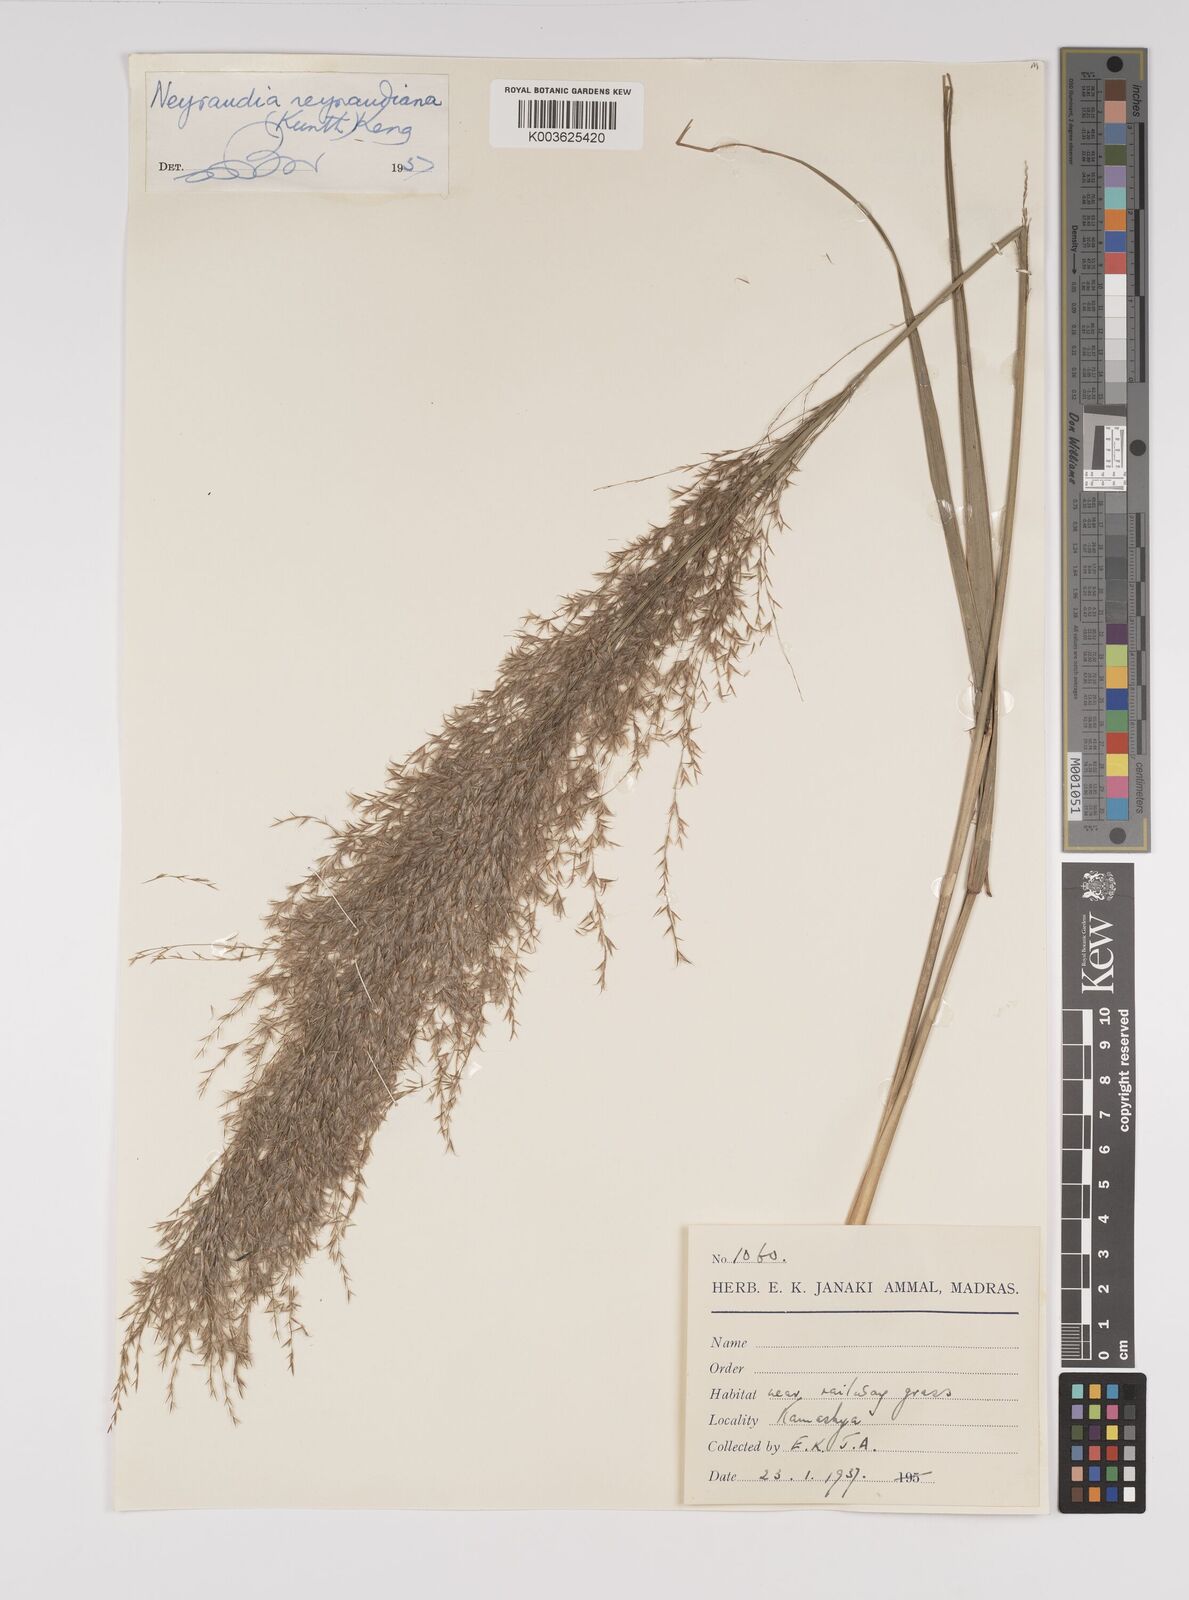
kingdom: Plantae
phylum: Tracheophyta
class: Liliopsida
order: Poales
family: Poaceae
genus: Neyraudia
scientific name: Neyraudia reynaudiana
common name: Silkreed
